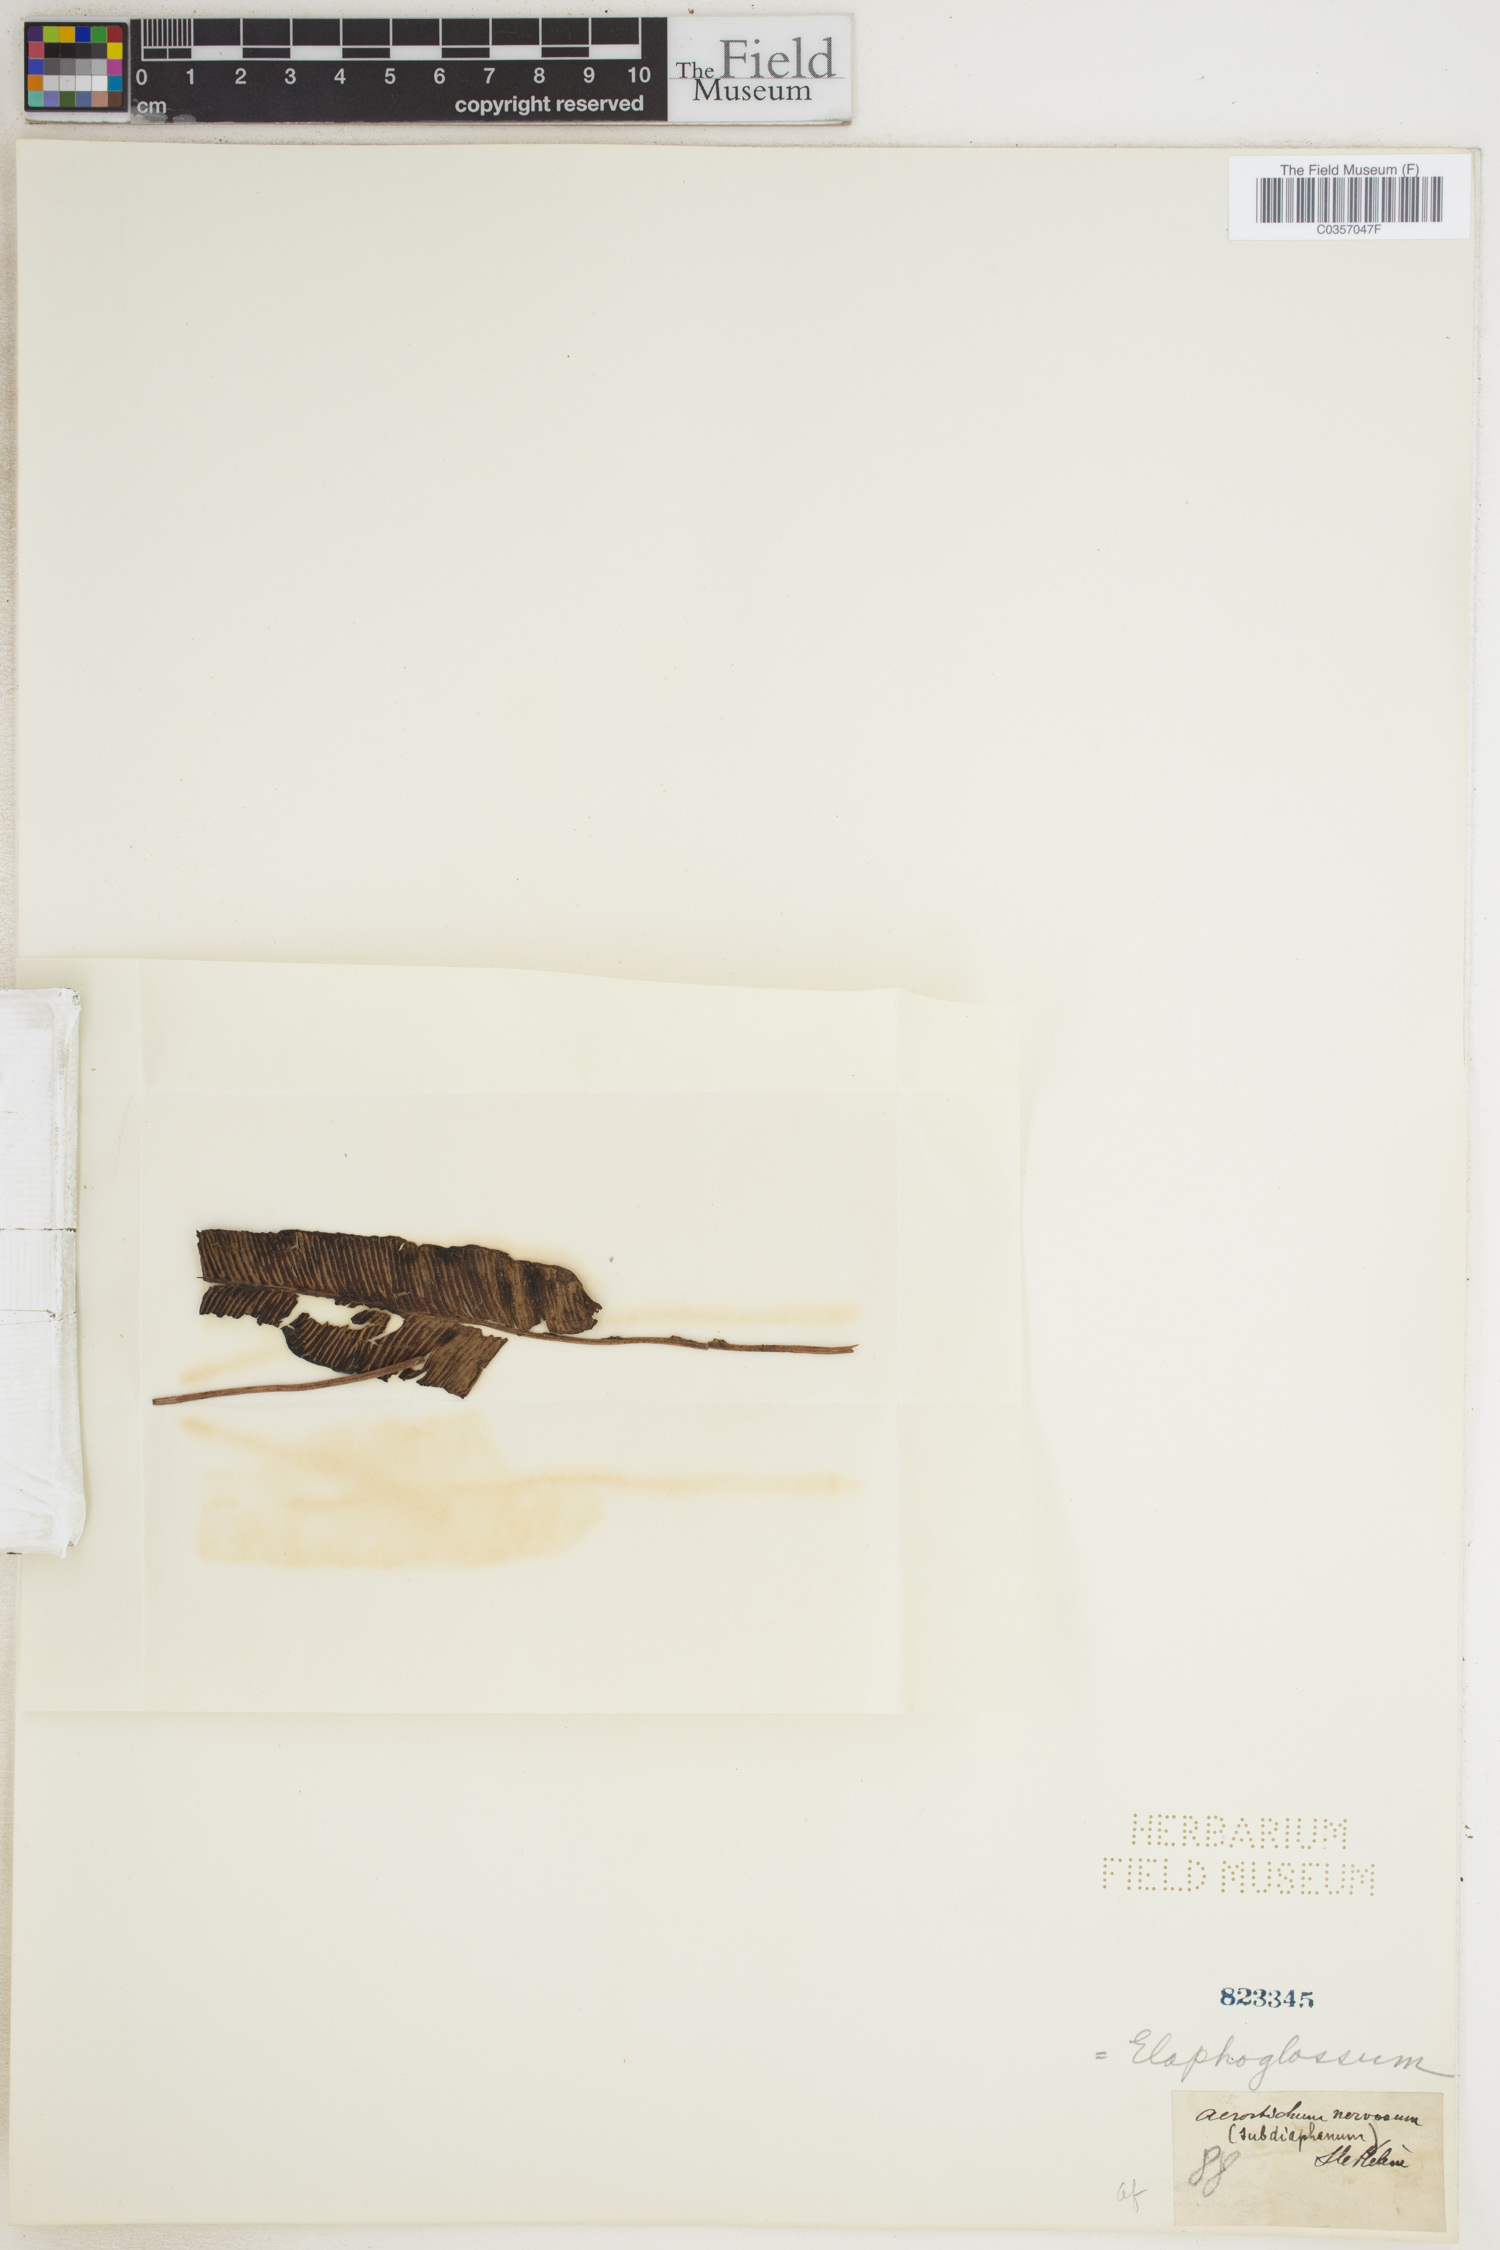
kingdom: Plantae
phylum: Tracheophyta
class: Polypodiopsida
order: Polypodiales
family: Dryopteridaceae
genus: Elaphoglossum
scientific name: Elaphoglossum
